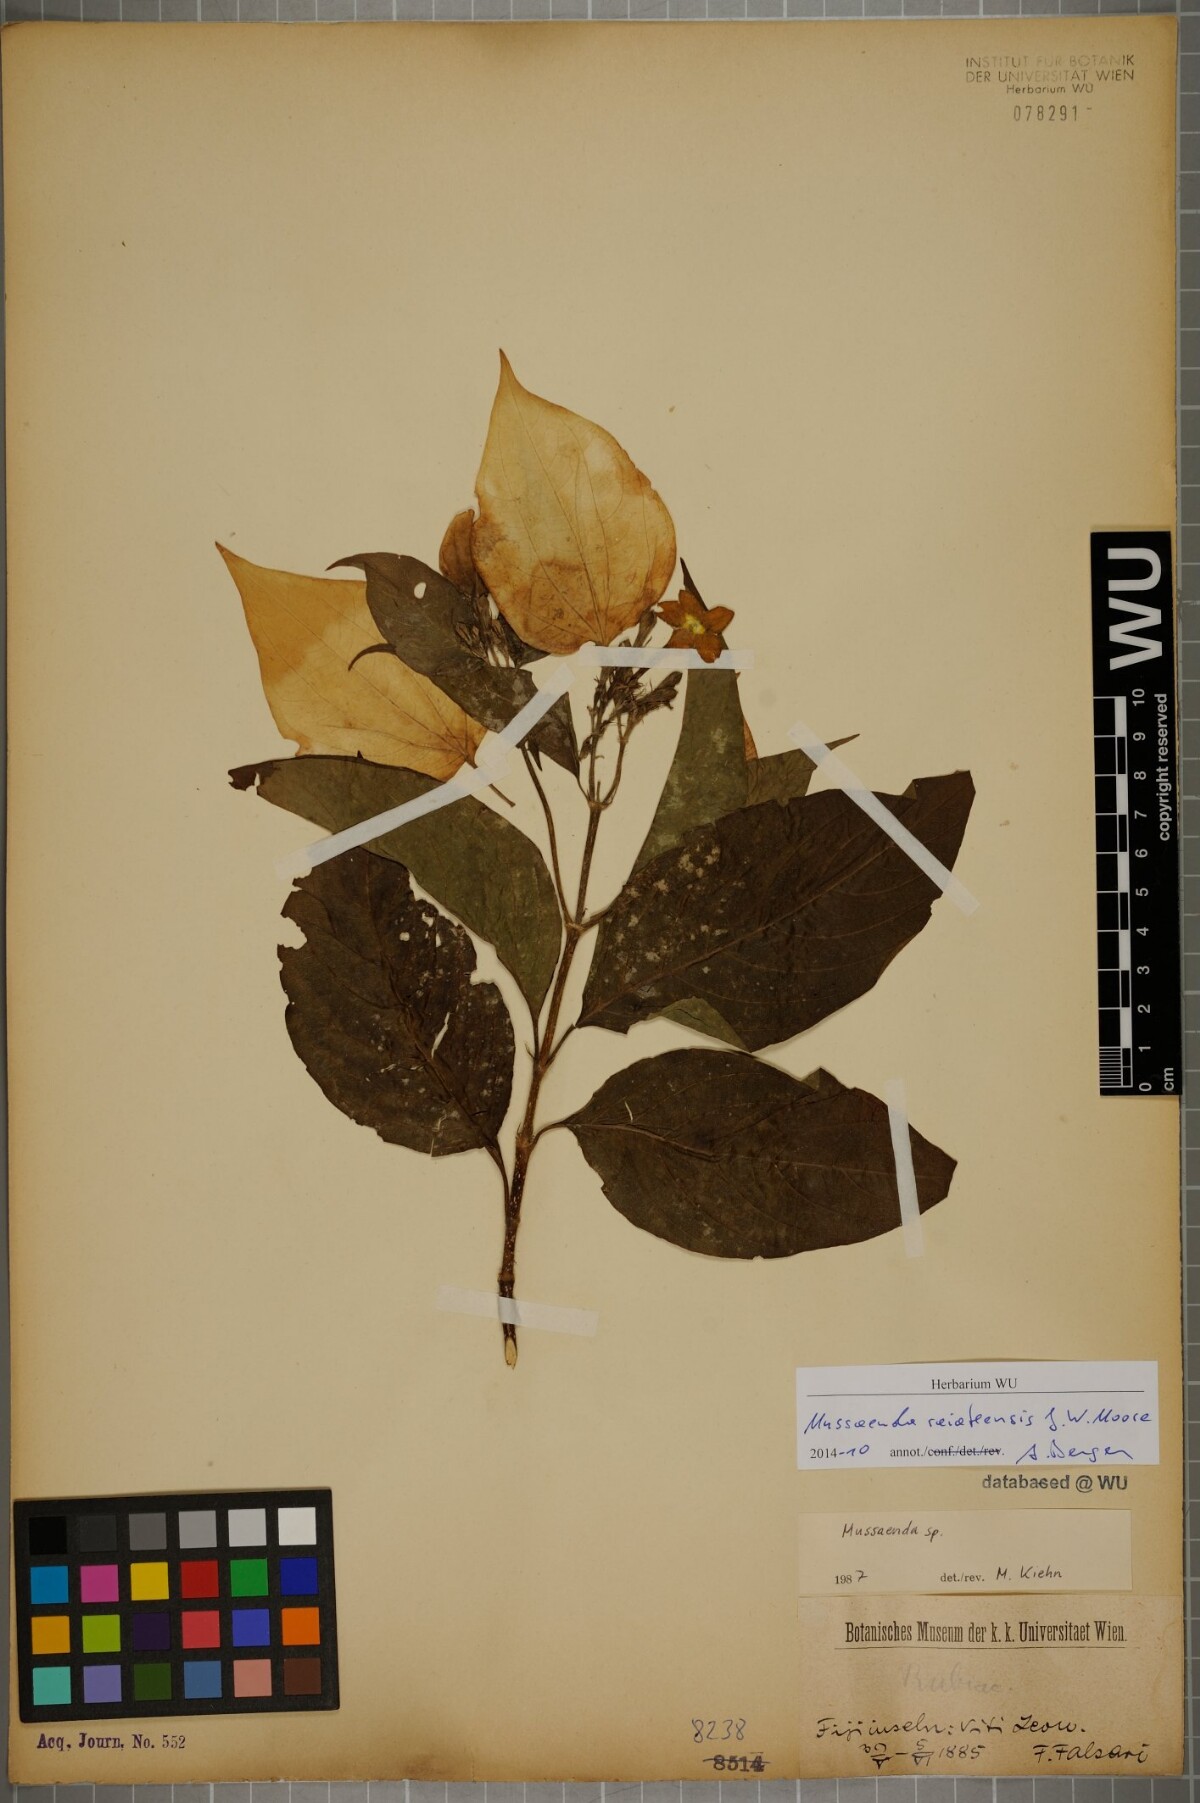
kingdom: Plantae
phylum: Tracheophyta
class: Magnoliopsida
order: Gentianales
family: Rubiaceae
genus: Mussaenda
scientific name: Mussaenda raiateensis
